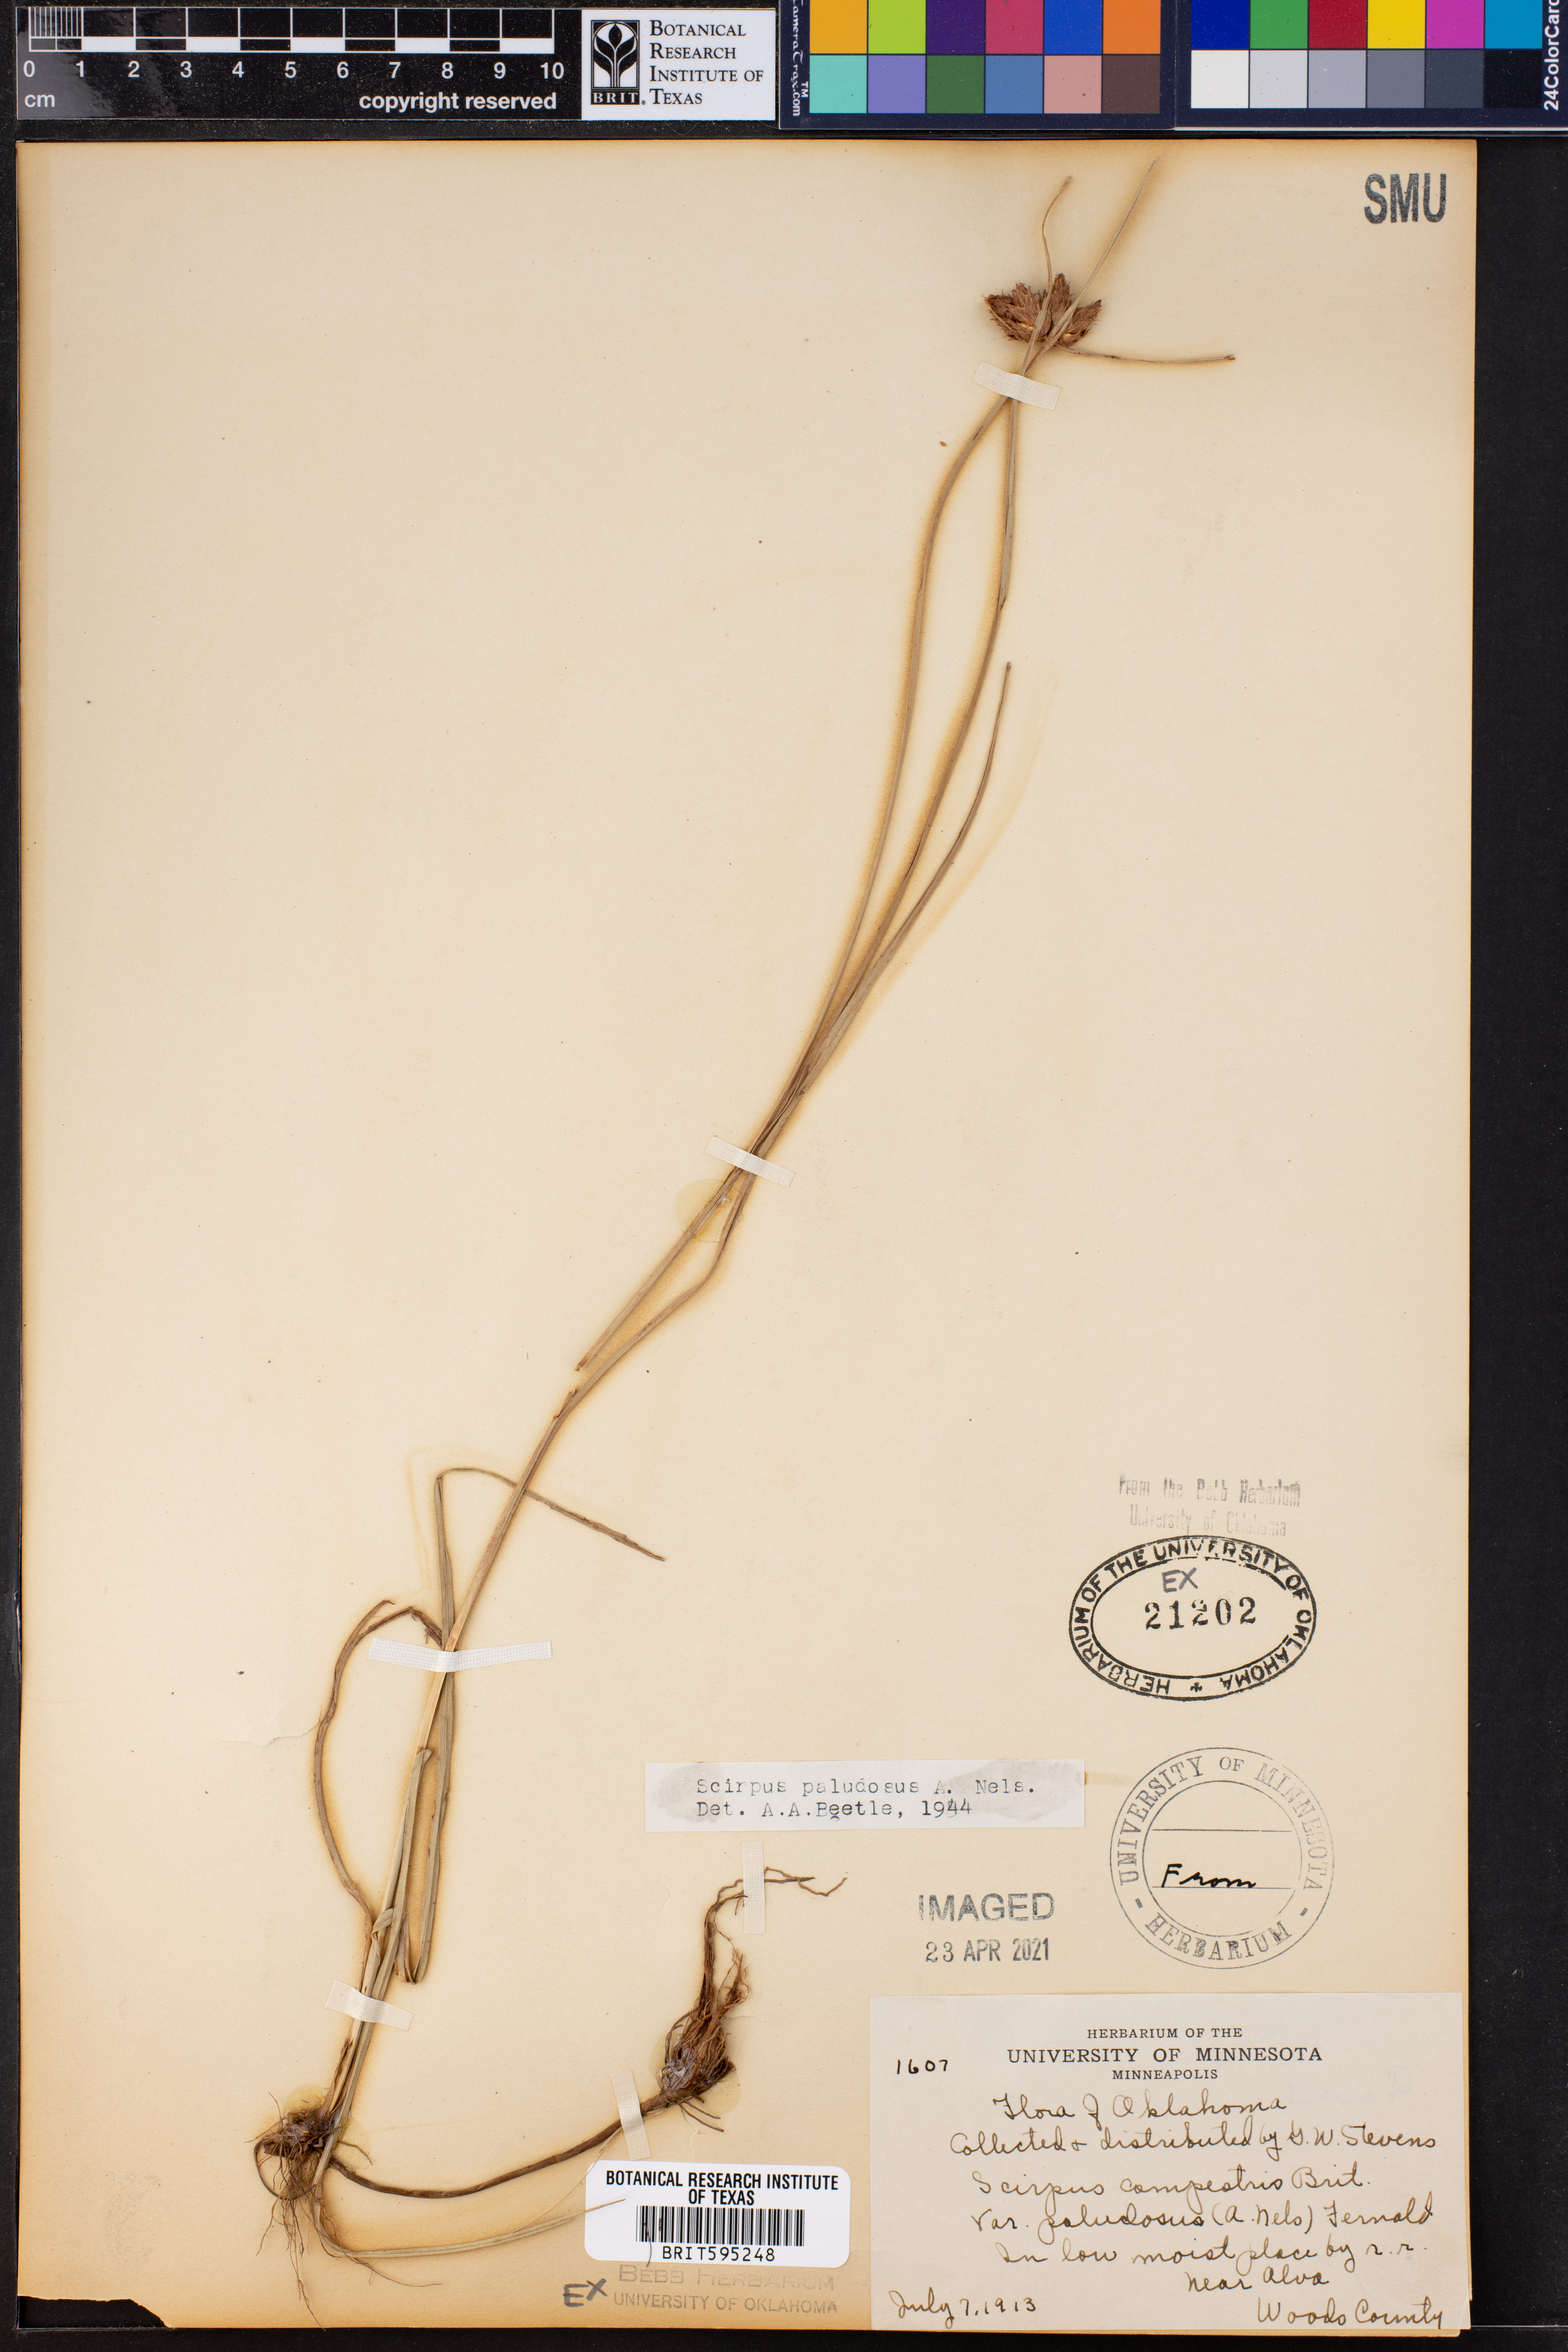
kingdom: Plantae
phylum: Tracheophyta
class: Liliopsida
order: Poales
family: Cyperaceae
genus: Bolboschoenus
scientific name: Bolboschoenus maritimus
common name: Sea club-rush
